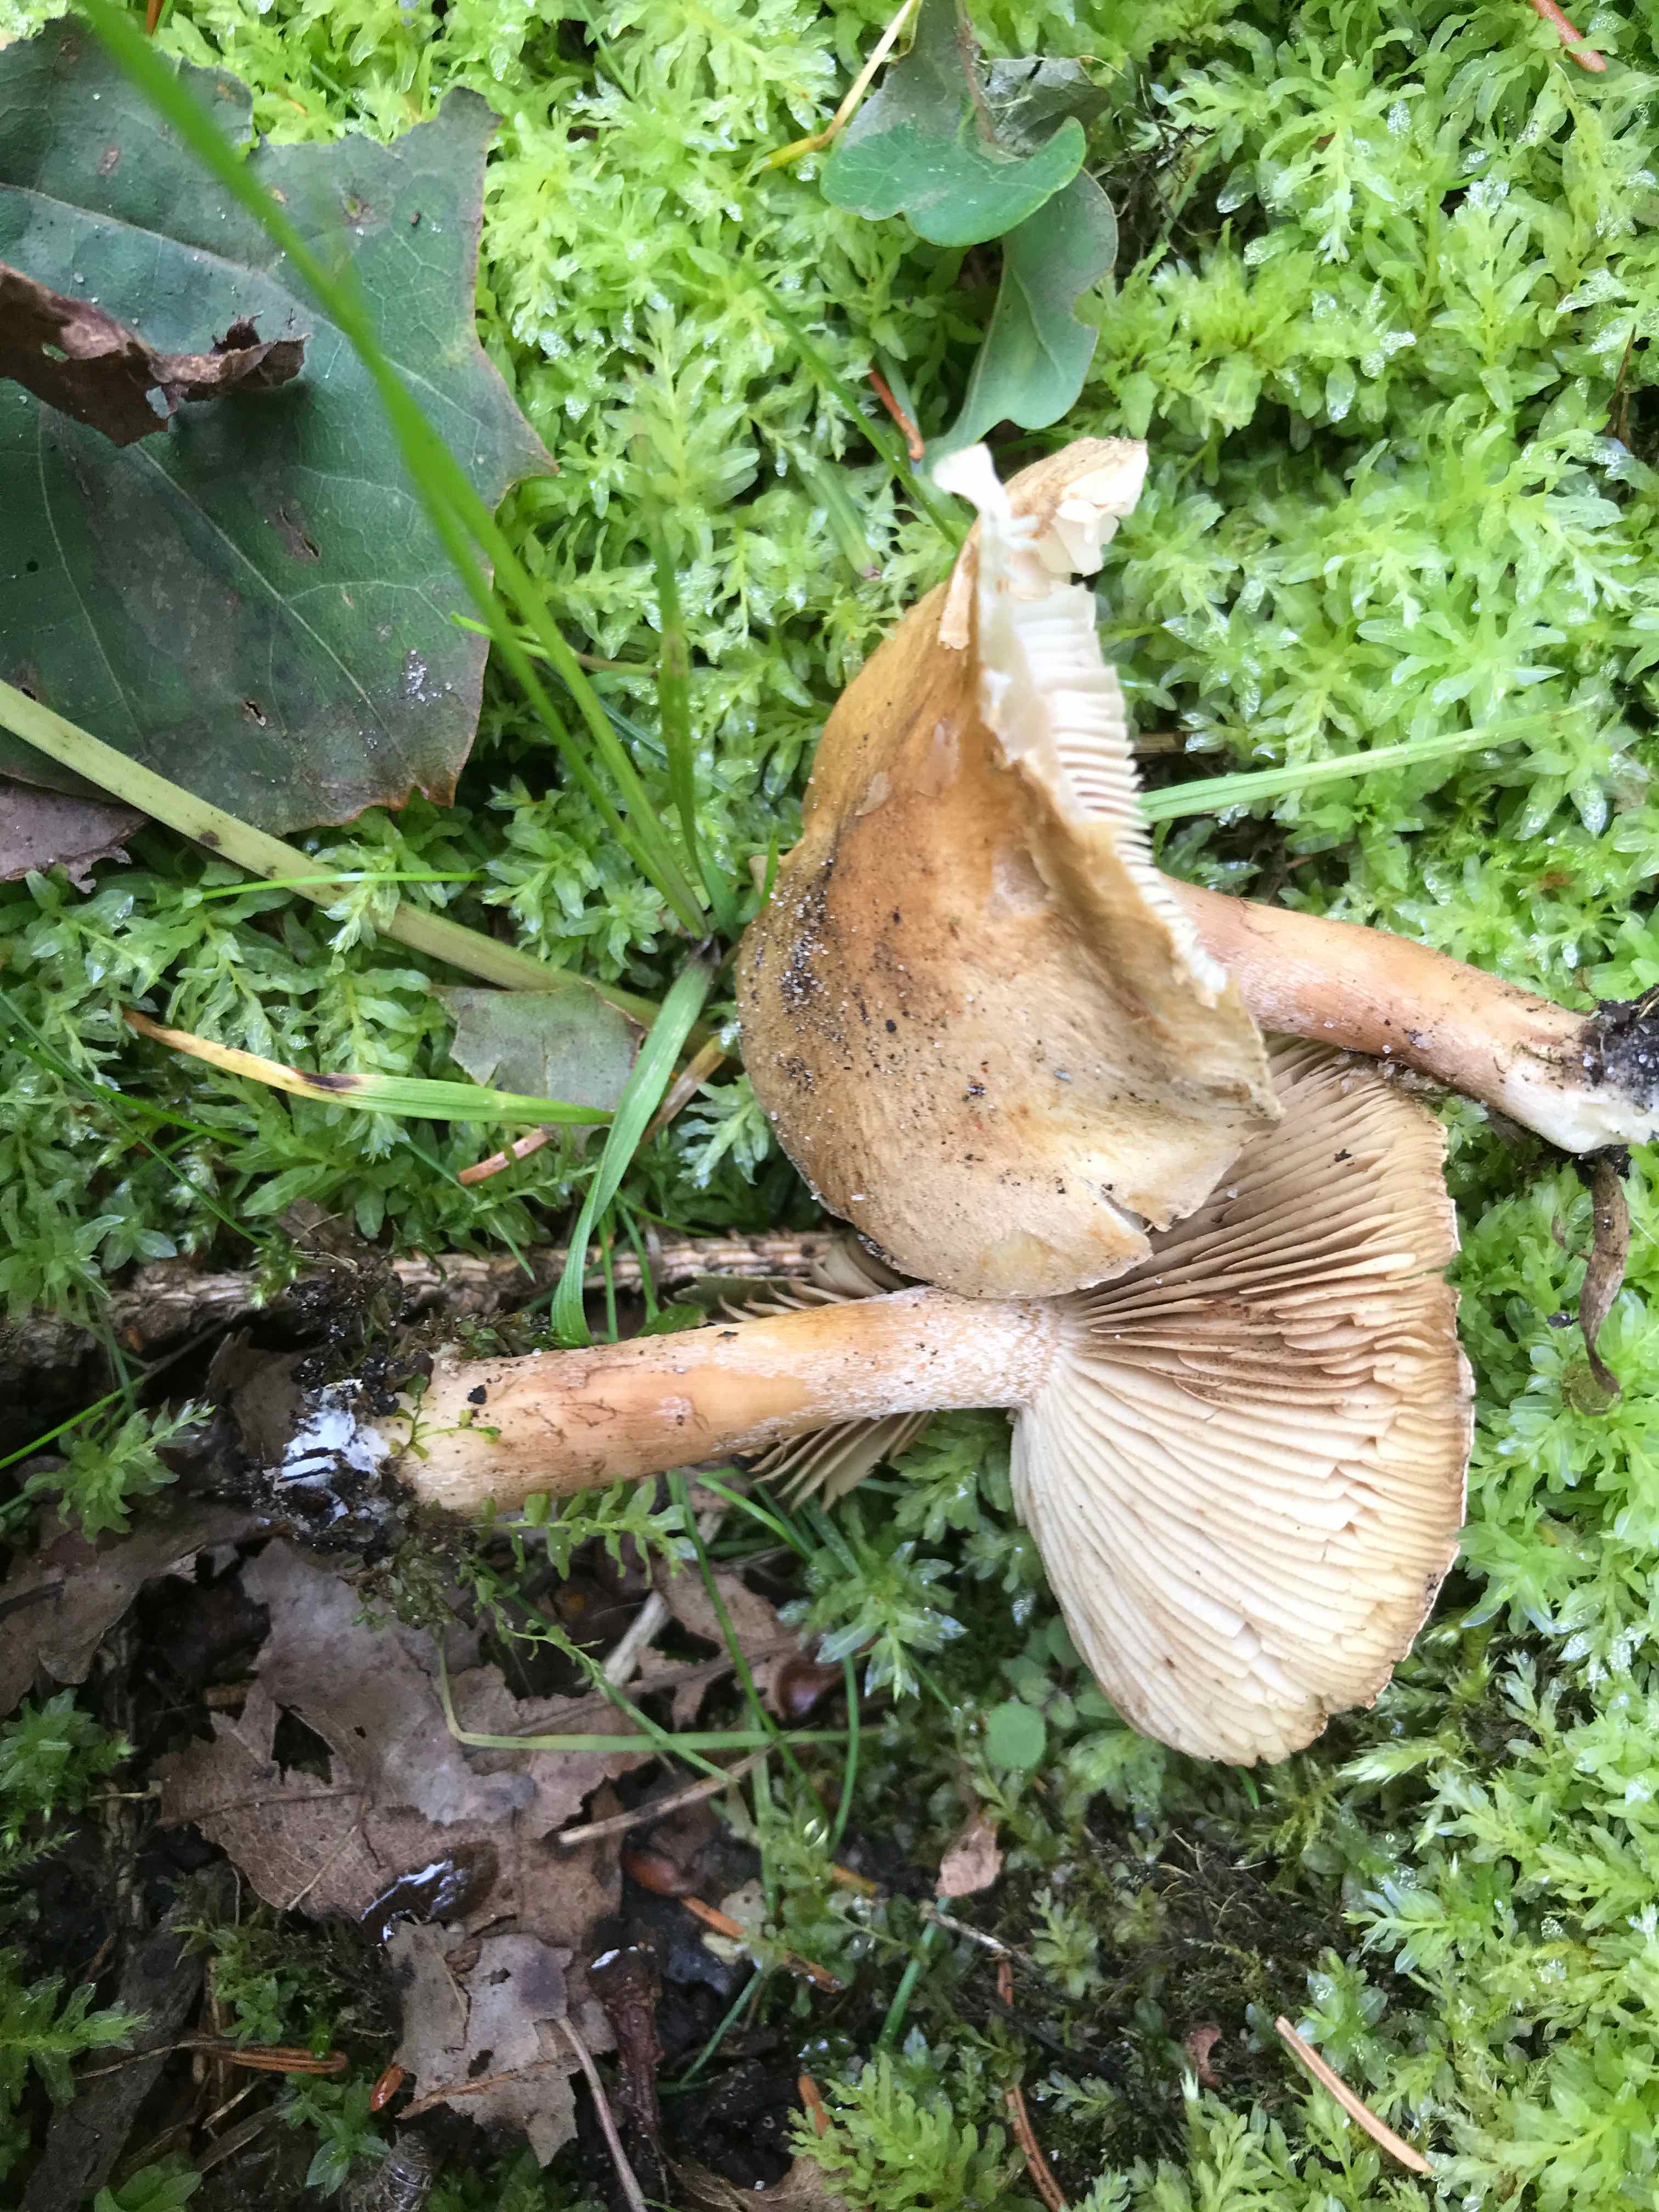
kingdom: Fungi
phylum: Basidiomycota
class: Agaricomycetes
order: Agaricales
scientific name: Agaricales
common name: champignonordenen
